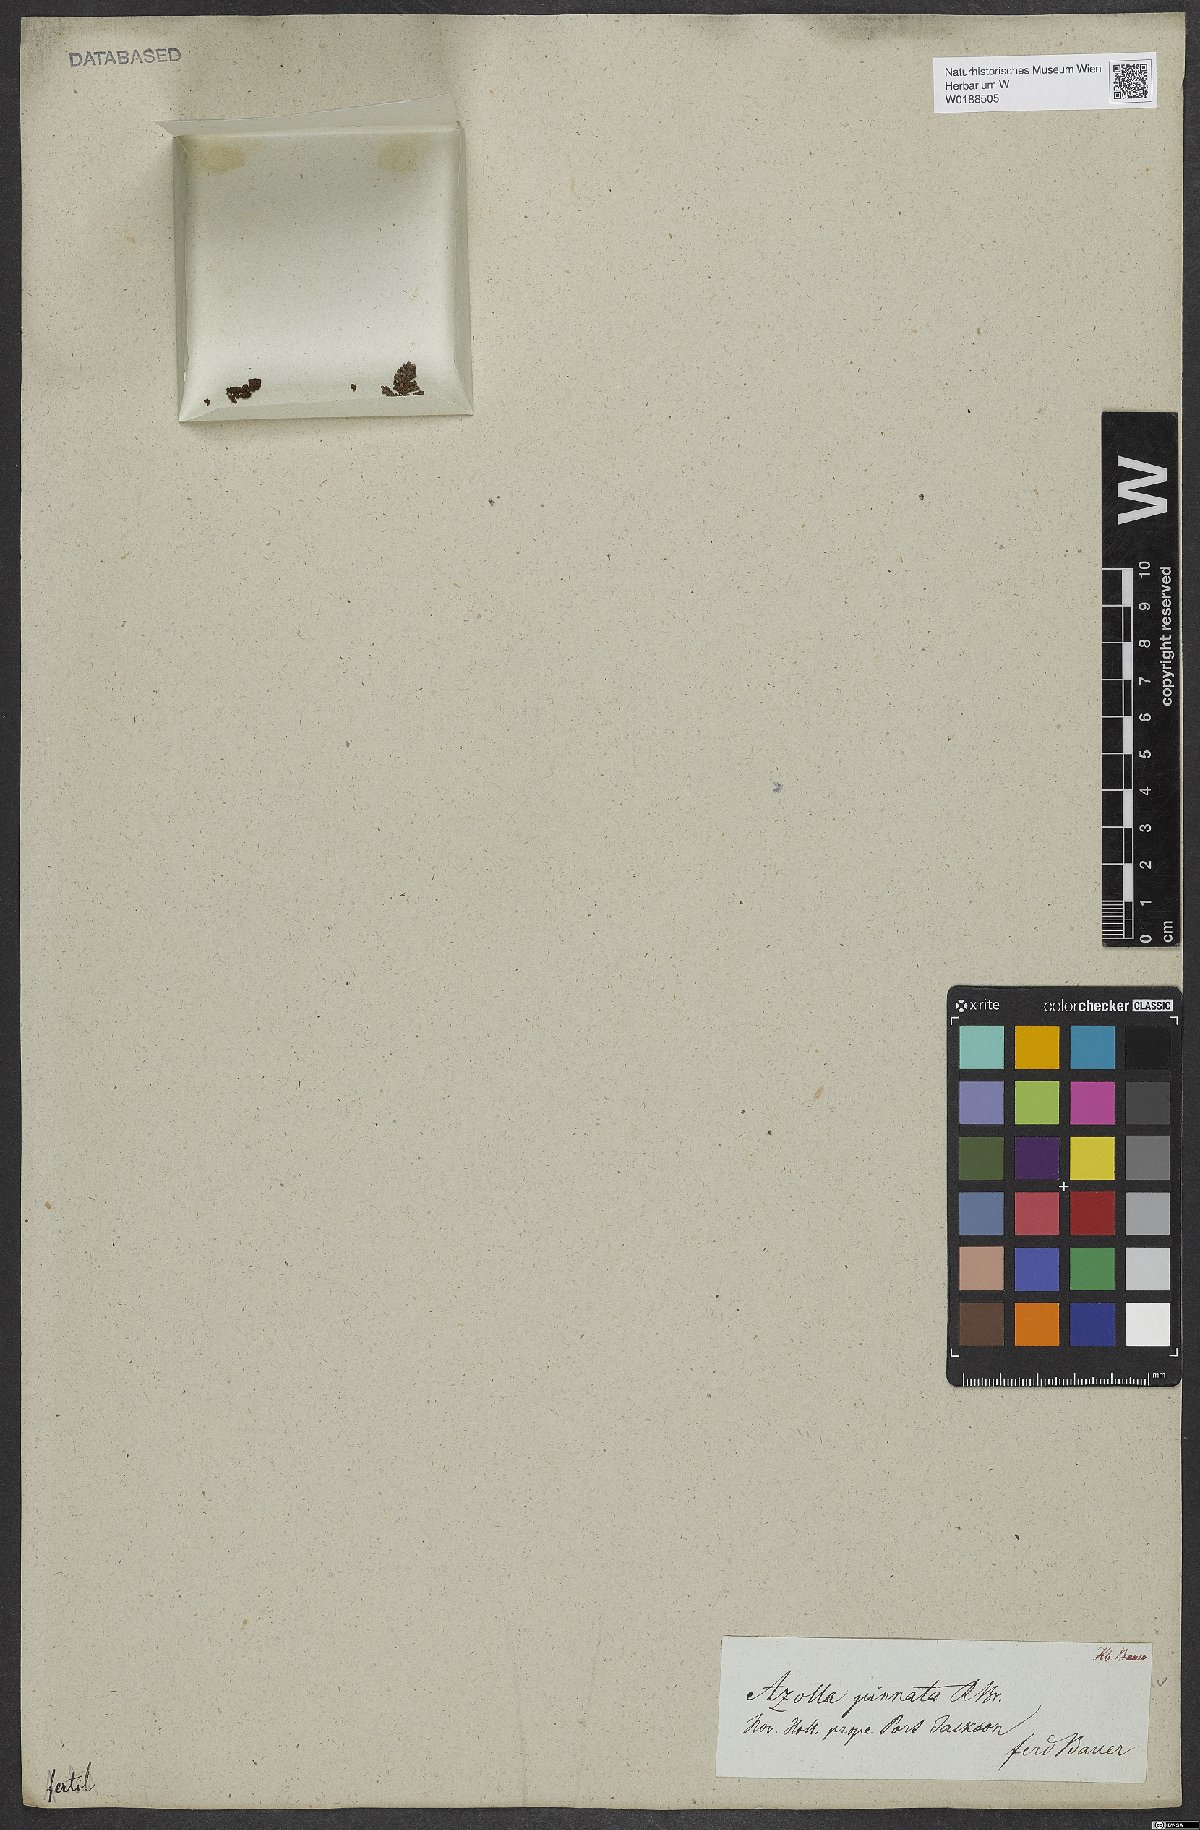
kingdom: Plantae
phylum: Tracheophyta
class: Polypodiopsida
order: Salviniales
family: Salviniaceae
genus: Azolla
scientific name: Azolla pinnata
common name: Ferny azolla
